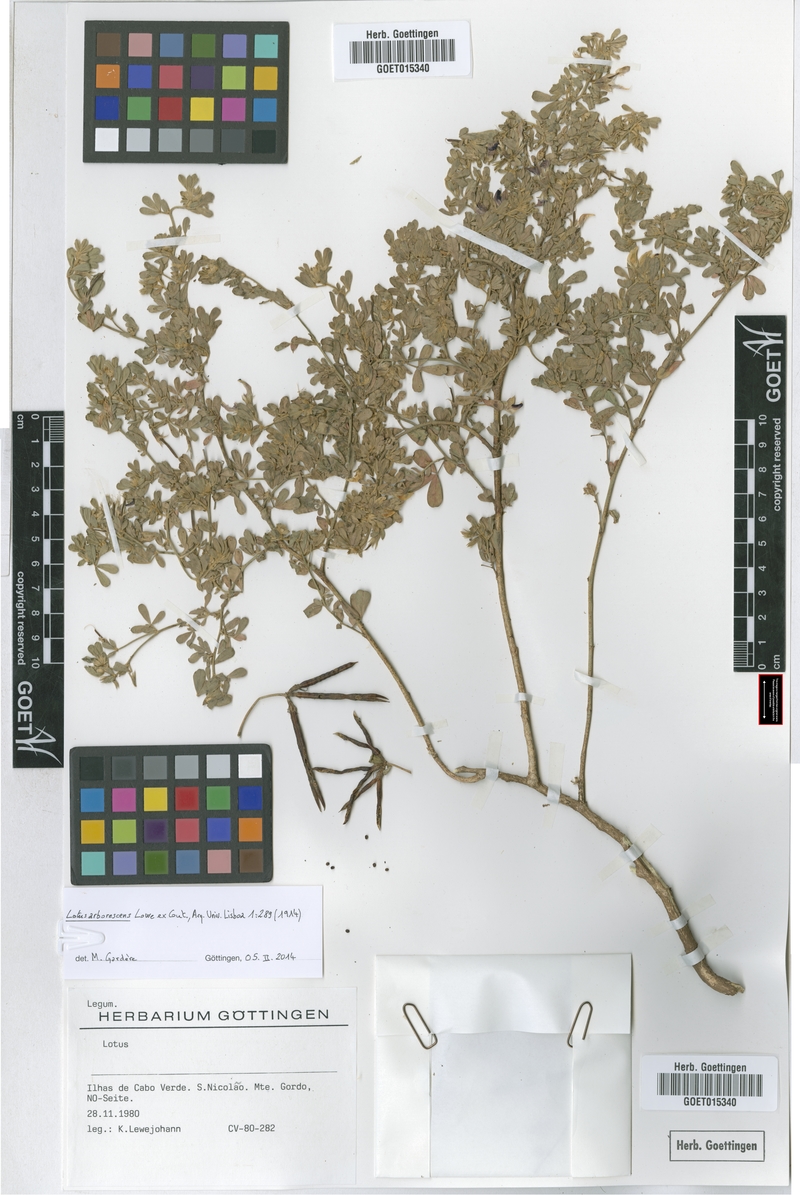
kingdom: Plantae
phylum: Tracheophyta
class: Magnoliopsida
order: Fabales
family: Fabaceae
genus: Lotus
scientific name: Lotus purpureus
